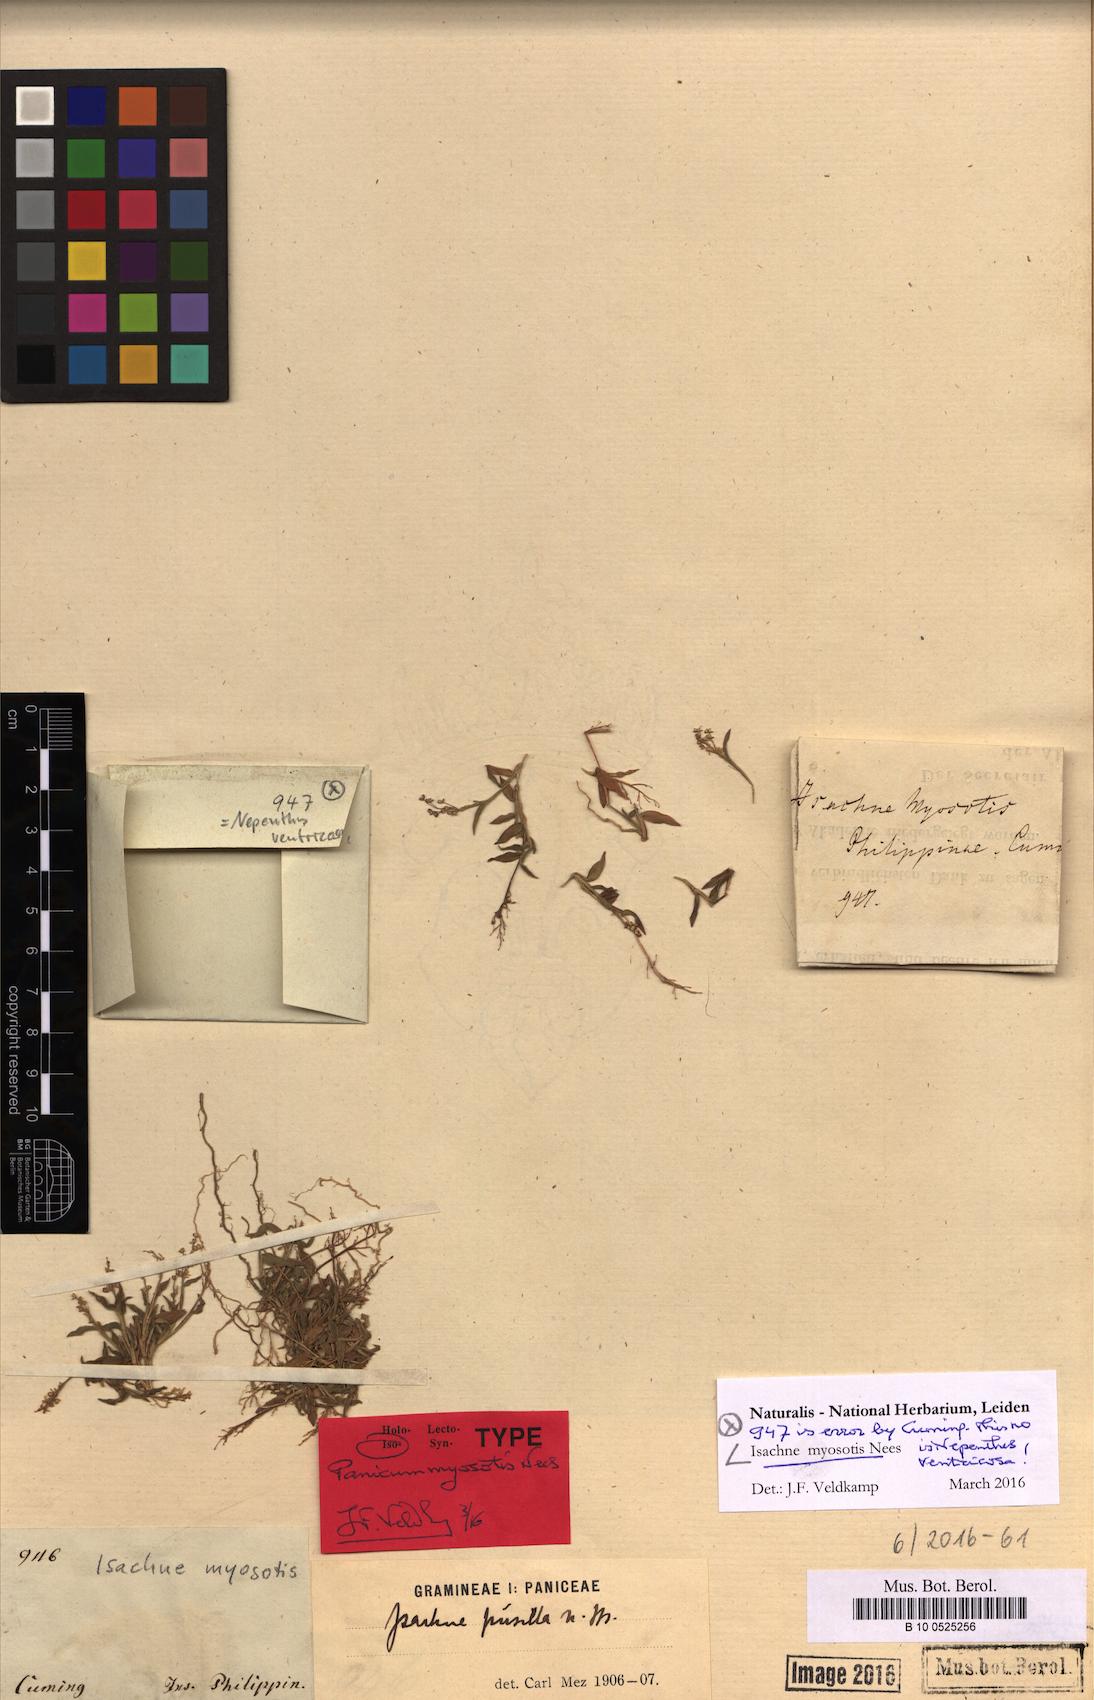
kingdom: Plantae
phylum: Tracheophyta
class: Liliopsida
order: Poales
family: Poaceae
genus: Isachne
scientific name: Isachne myosotis
